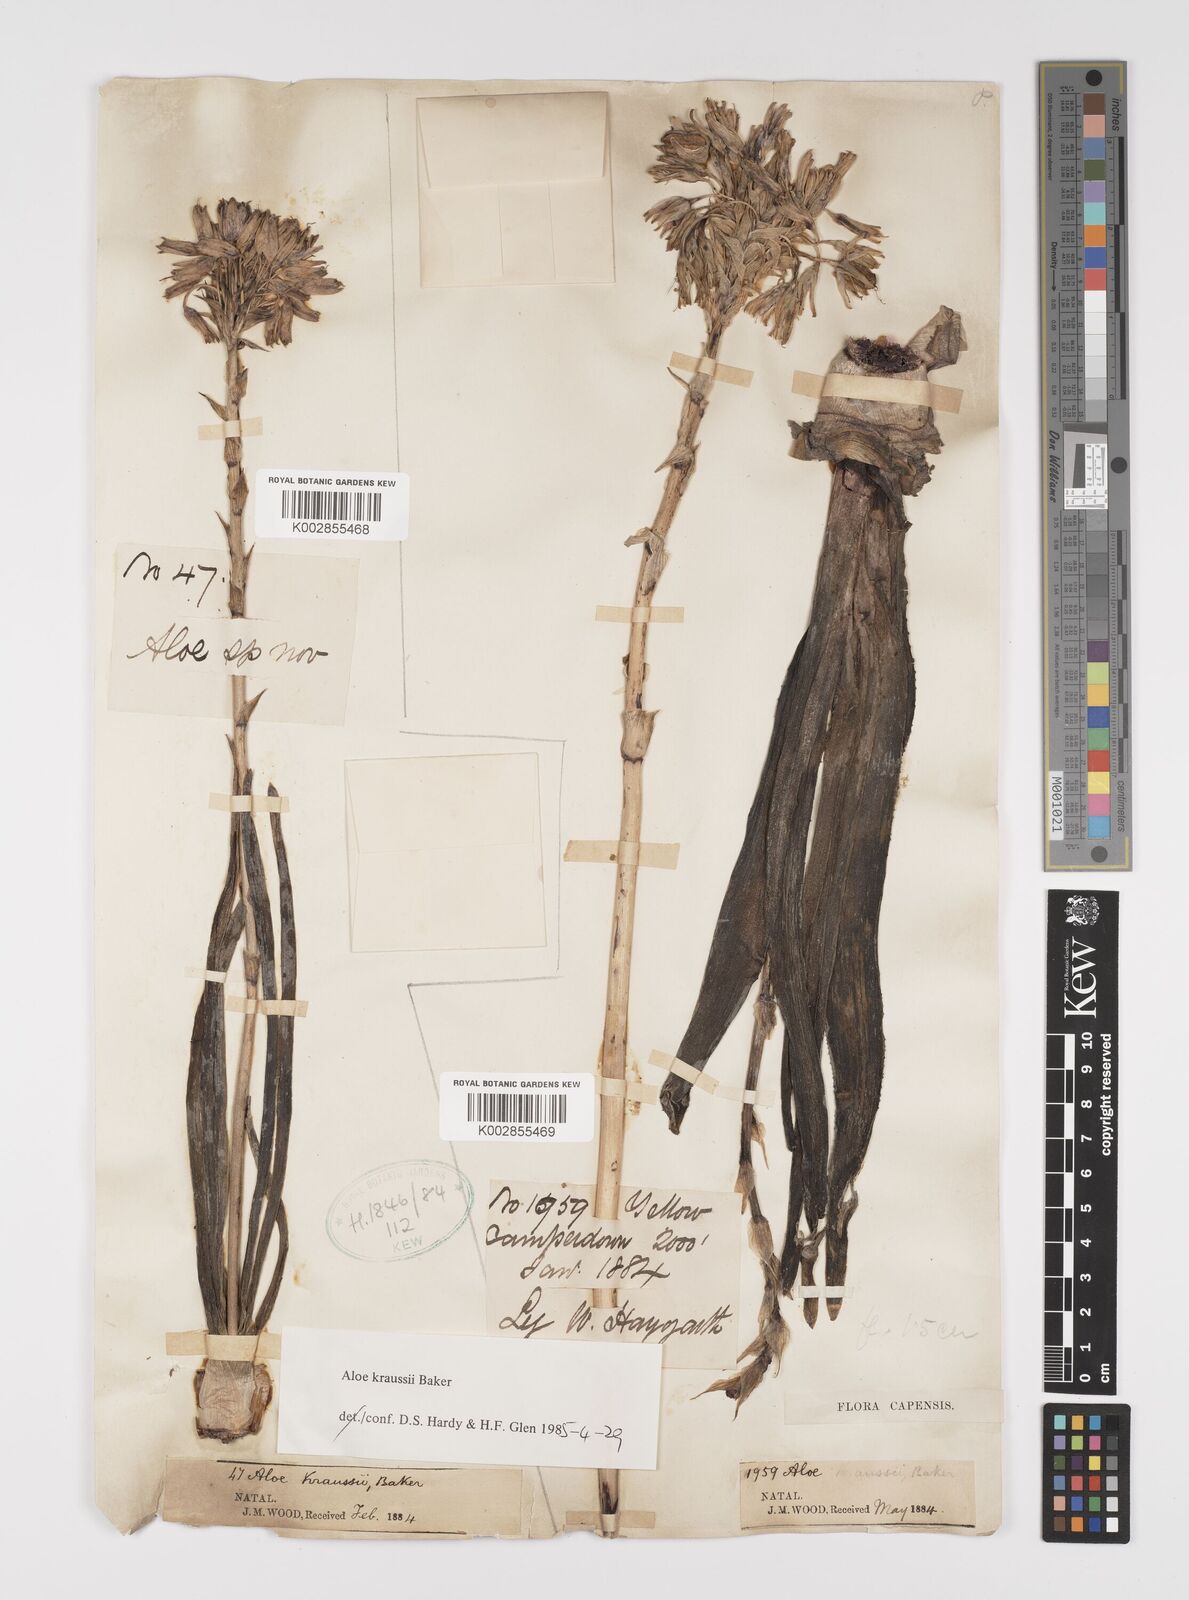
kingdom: Plantae
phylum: Tracheophyta
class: Liliopsida
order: Asparagales
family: Asphodelaceae
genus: Aloe
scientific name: Aloe kraussii
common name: Broad-leaved yellow grass aloe
